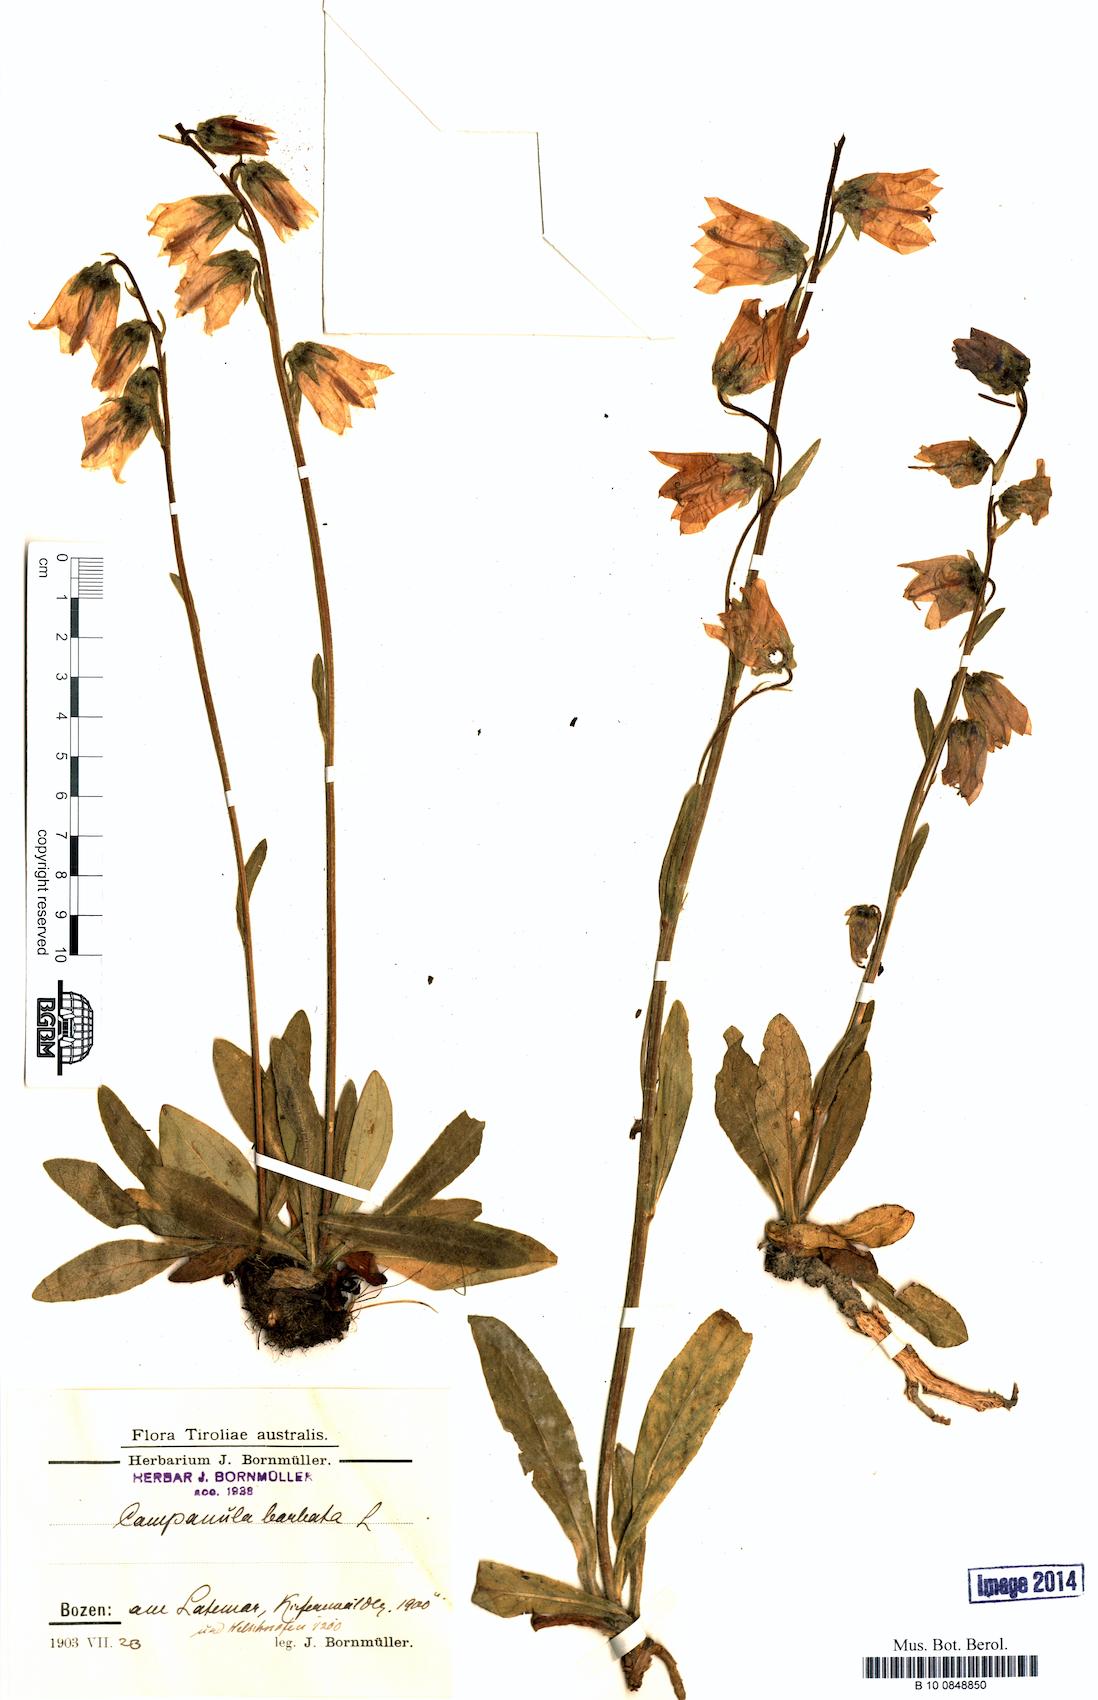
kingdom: Plantae
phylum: Tracheophyta
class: Magnoliopsida
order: Asterales
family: Campanulaceae
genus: Campanula
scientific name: Campanula barbata
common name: Bearded bellflower
